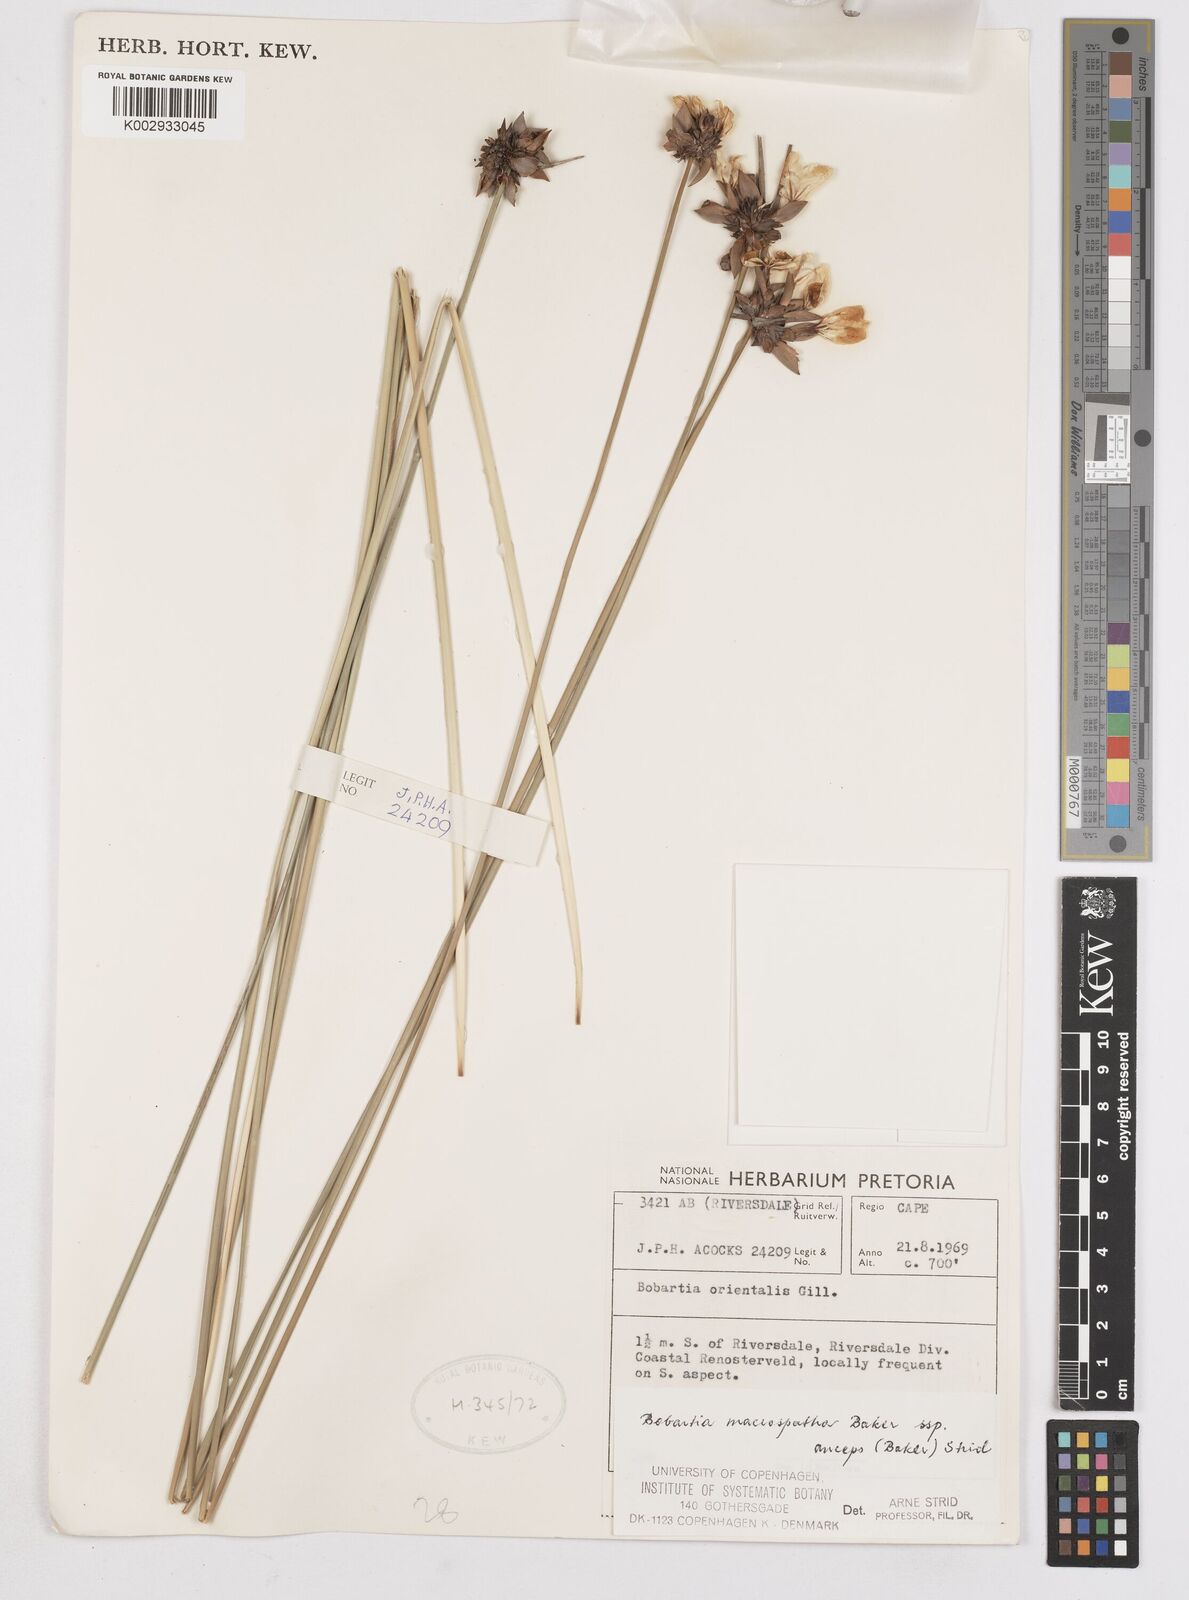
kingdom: Plantae
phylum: Tracheophyta
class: Liliopsida
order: Asparagales
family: Iridaceae
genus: Bobartia
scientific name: Bobartia macrospatha
